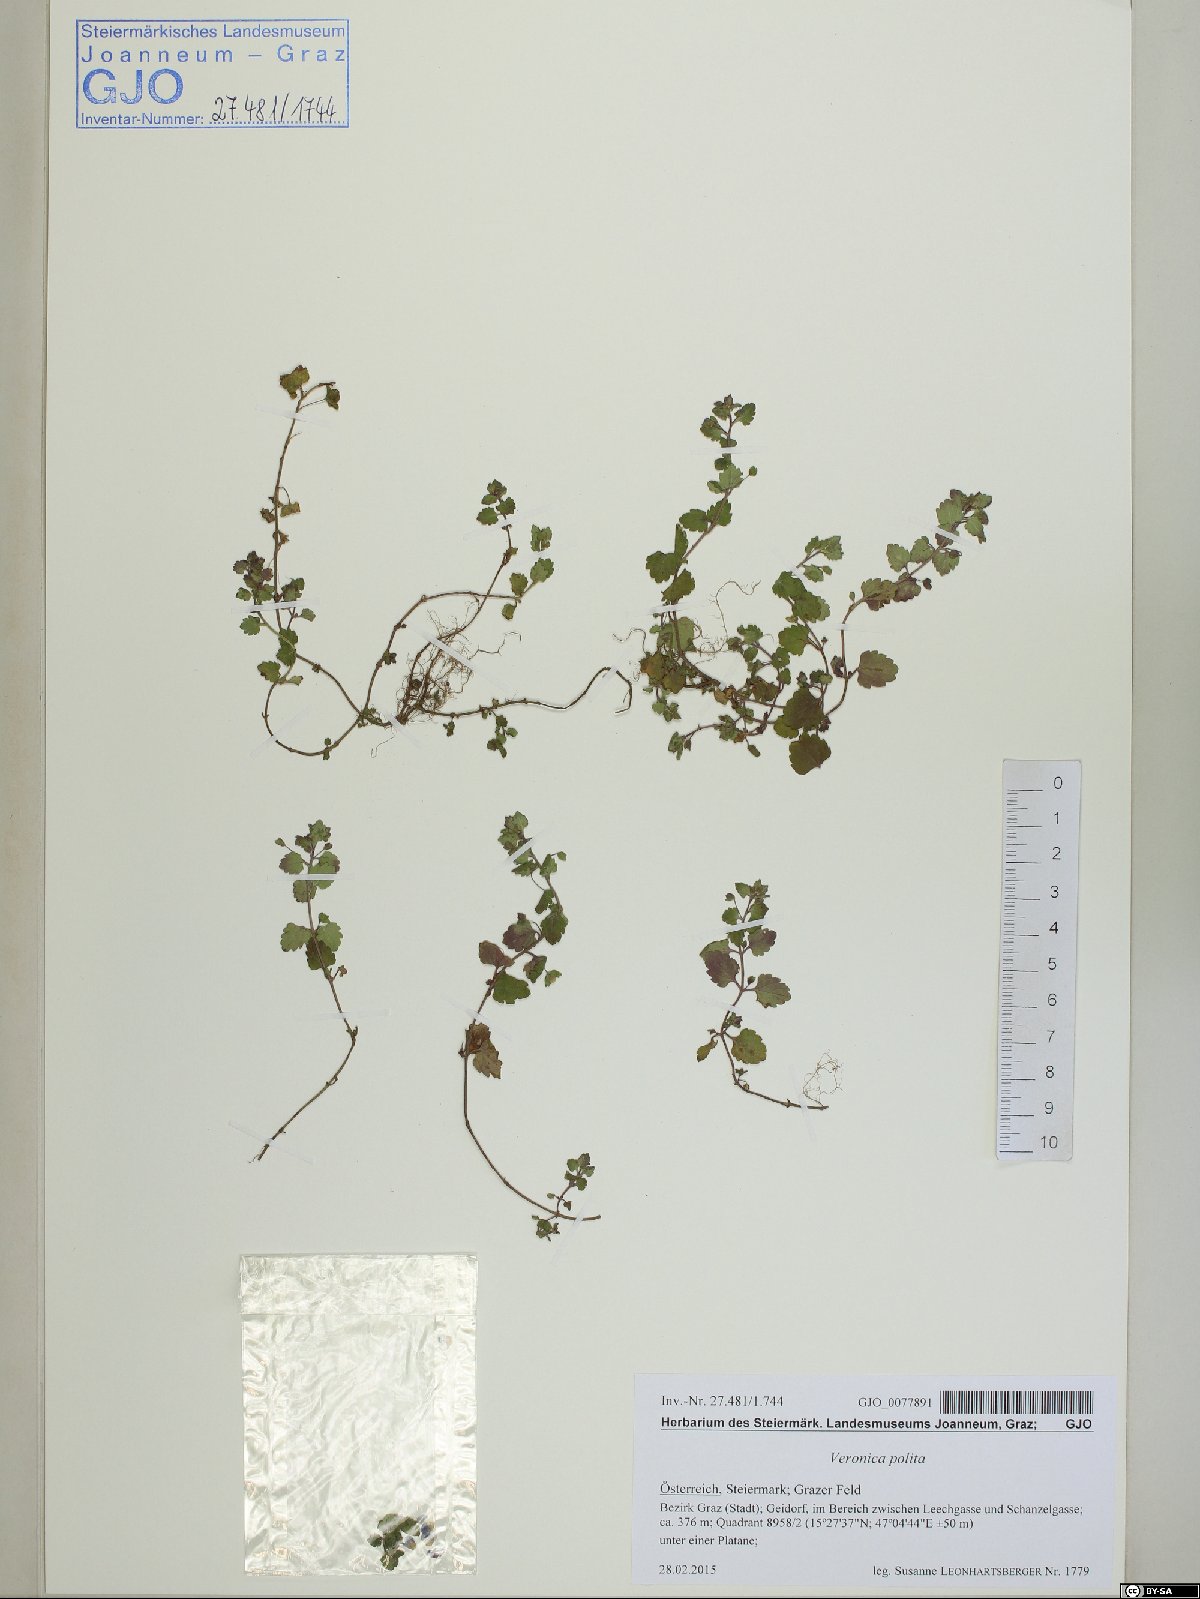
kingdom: Plantae
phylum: Tracheophyta
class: Magnoliopsida
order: Lamiales
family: Plantaginaceae
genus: Veronica
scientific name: Veronica polita
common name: Grey field-speedwell
